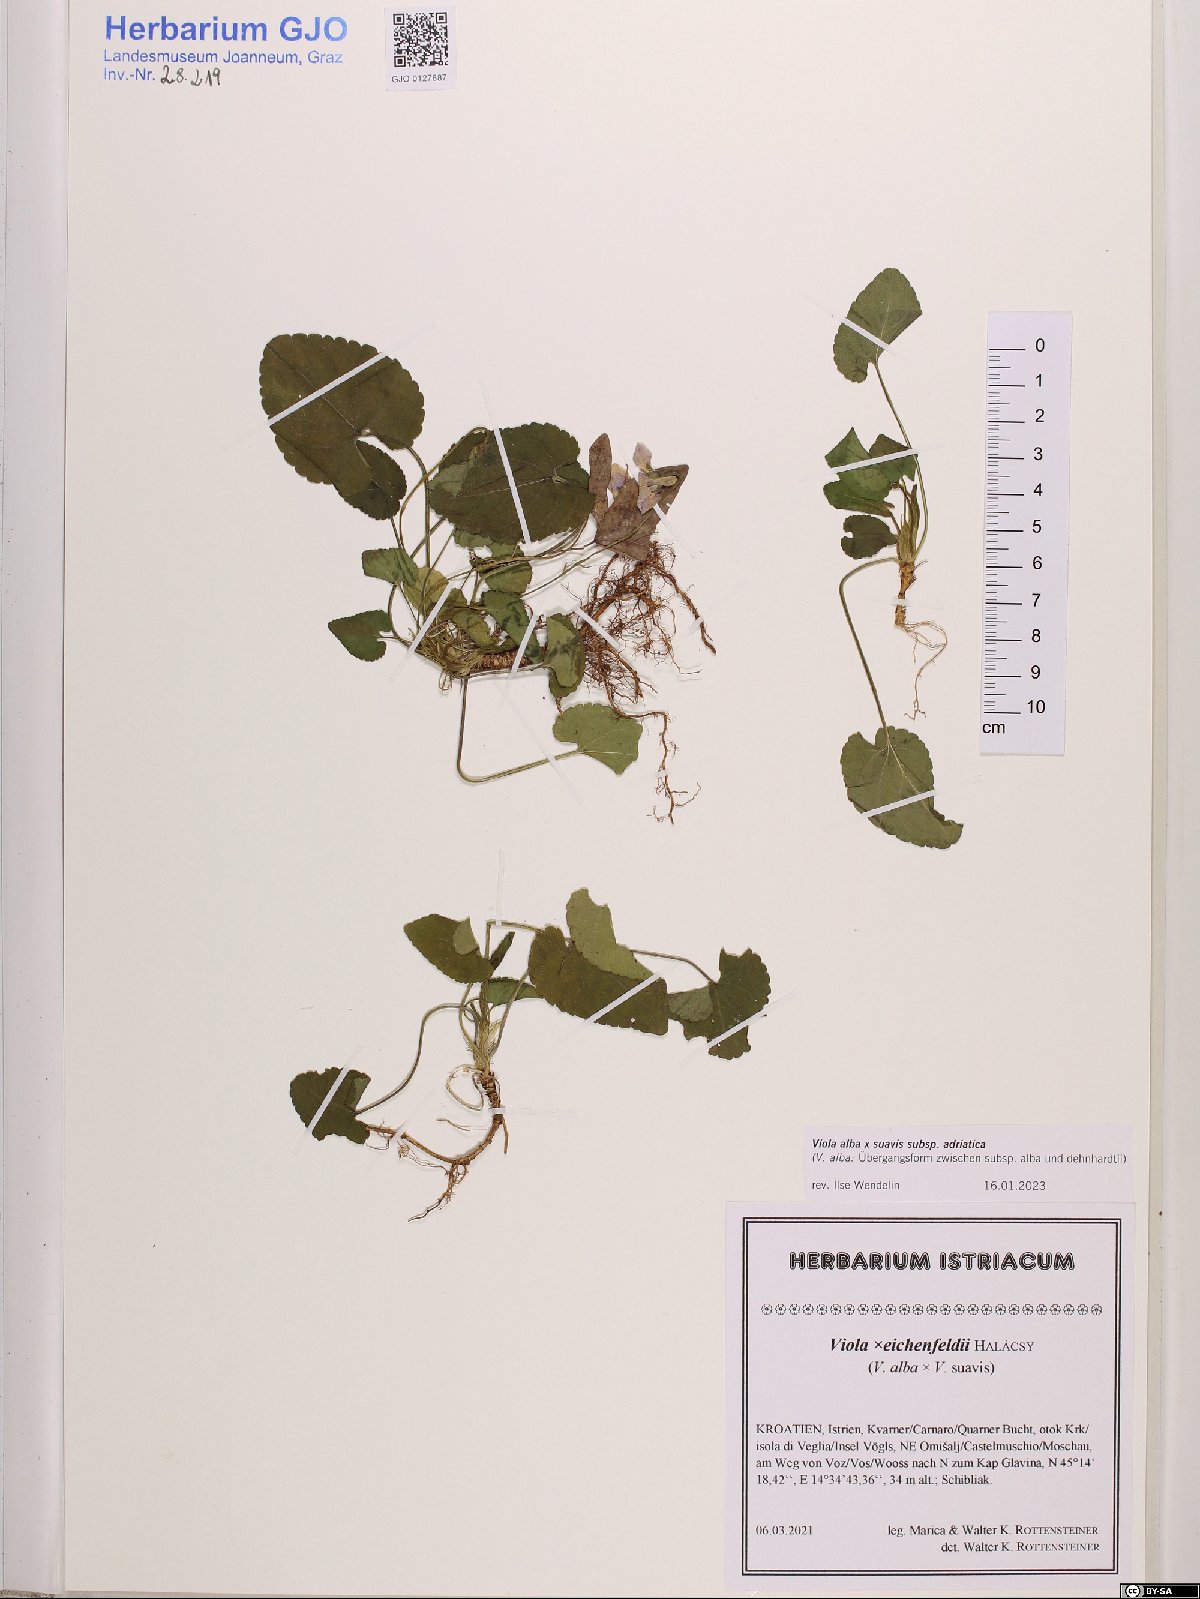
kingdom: Plantae
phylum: Tracheophyta
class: Magnoliopsida
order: Malpighiales
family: Violaceae
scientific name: Violaceae
